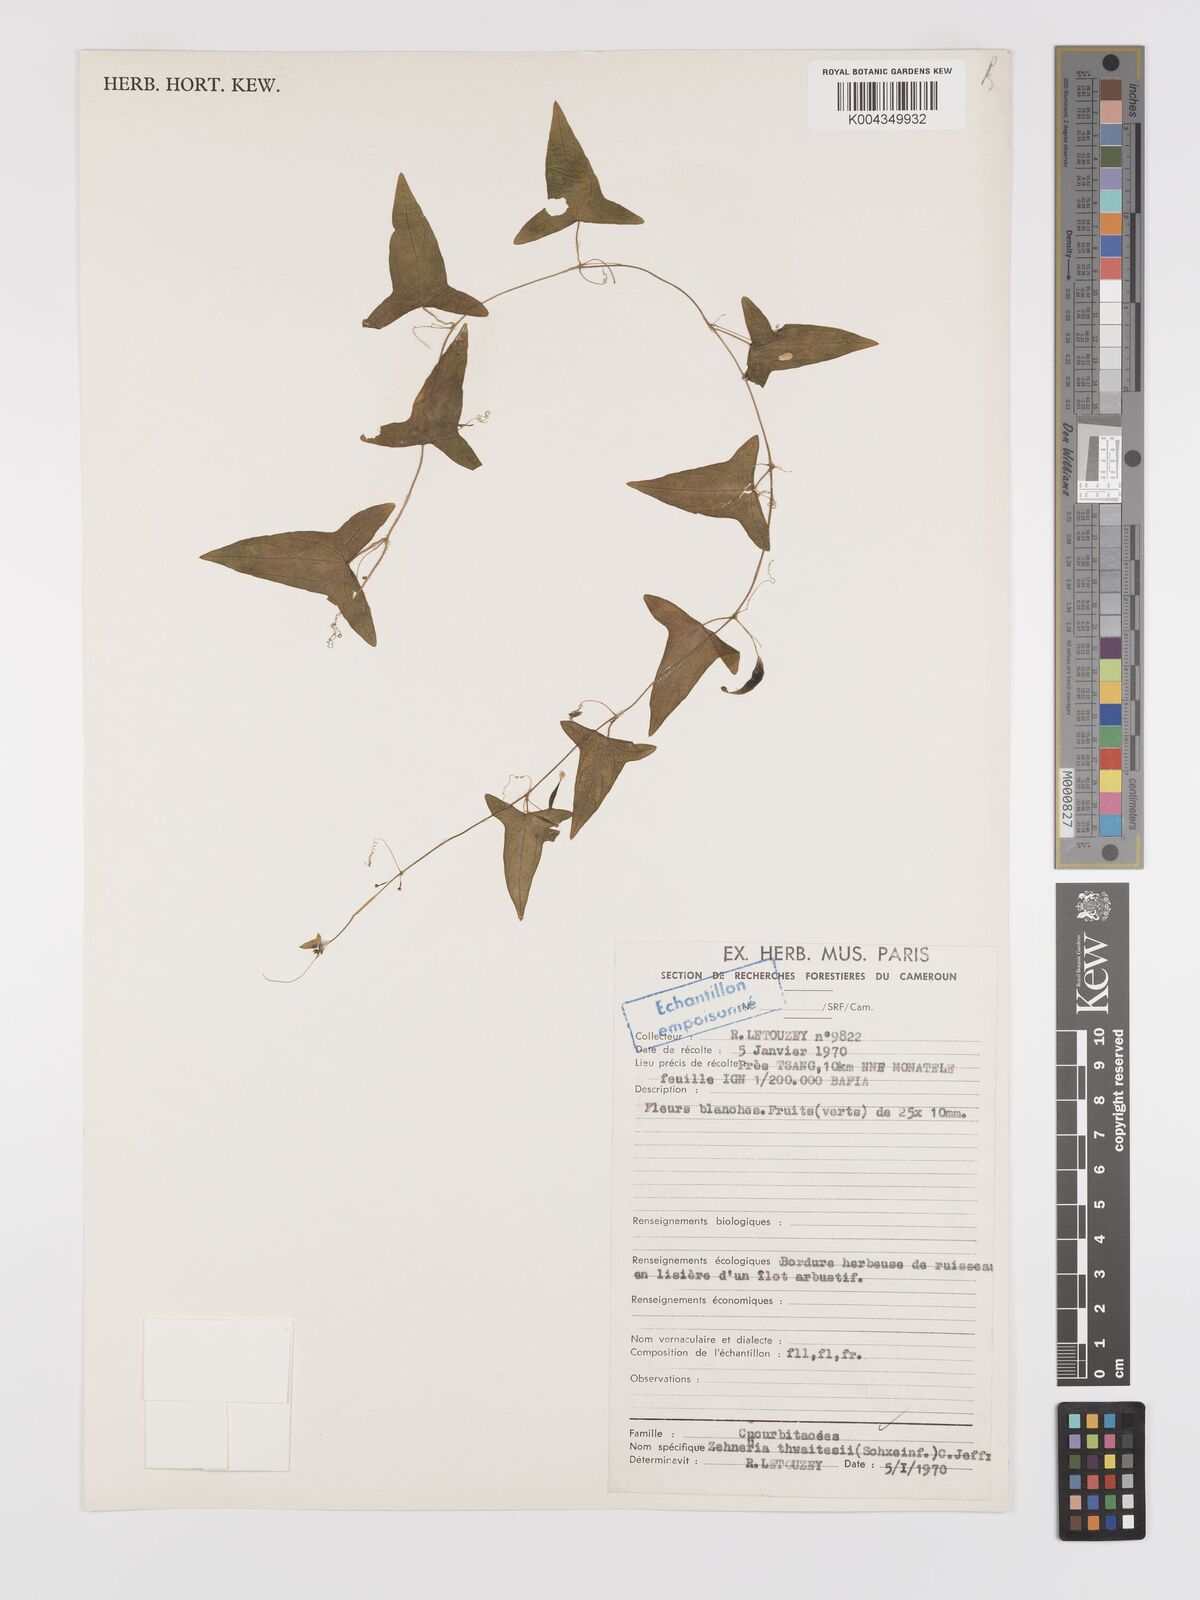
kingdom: Plantae
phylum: Tracheophyta
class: Magnoliopsida
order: Cucurbitales
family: Cucurbitaceae
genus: Zehneria
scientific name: Zehneria thwaitesii
